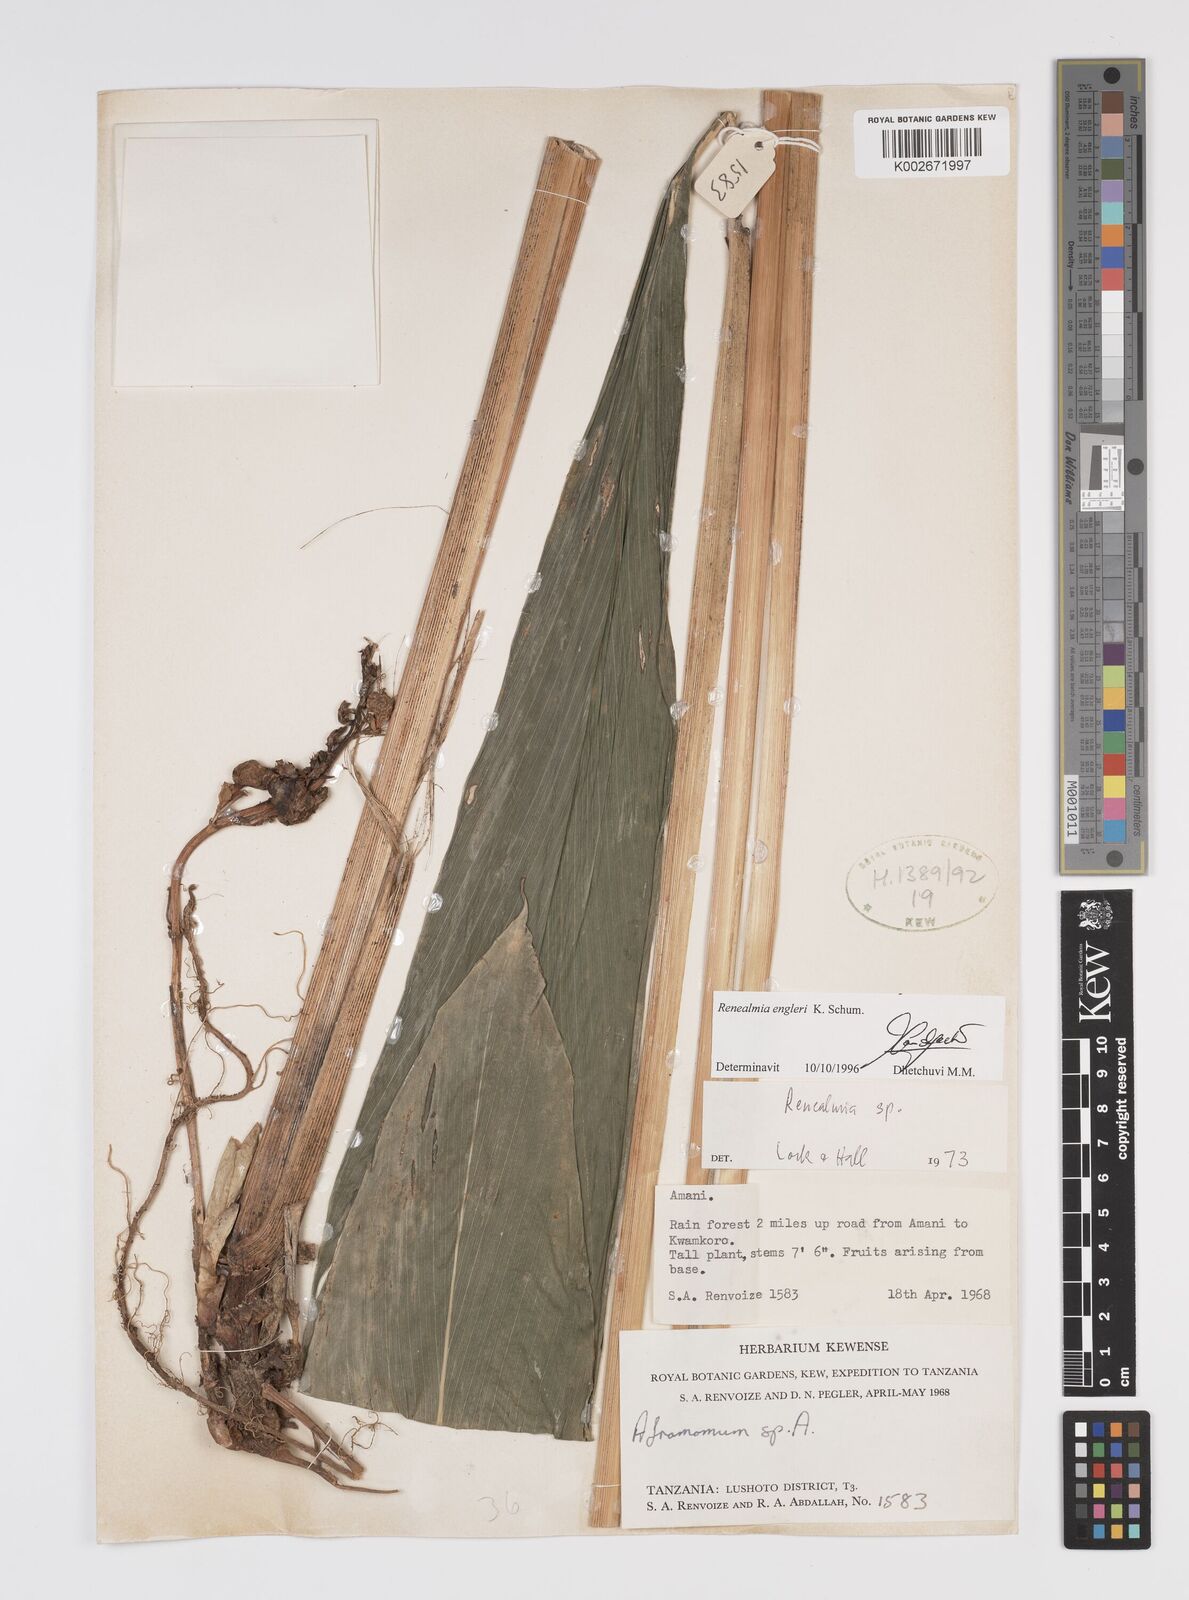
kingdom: Plantae
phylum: Tracheophyta
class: Liliopsida
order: Zingiberales
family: Zingiberaceae
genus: Renealmia
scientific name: Renealmia engleri
